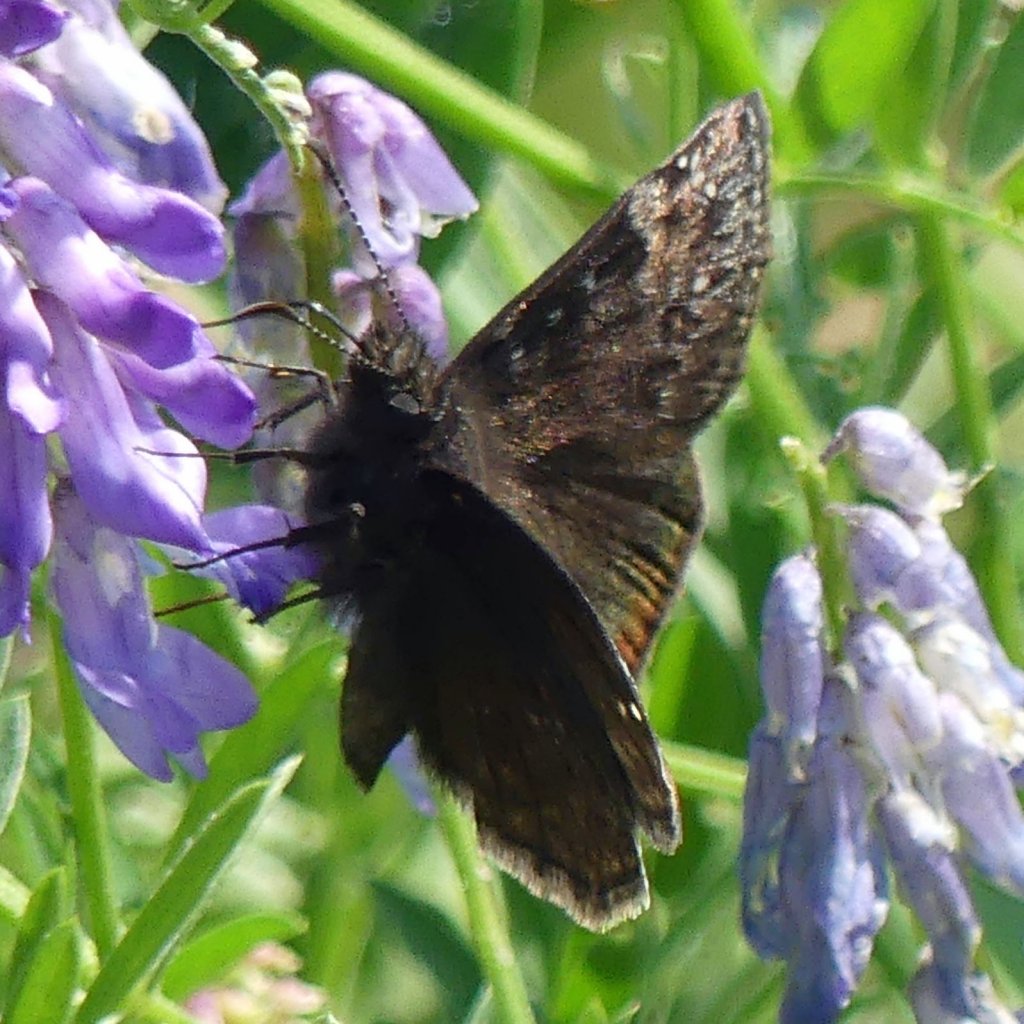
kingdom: Animalia
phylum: Arthropoda
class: Insecta
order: Lepidoptera
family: Hesperiidae
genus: Gesta
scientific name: Gesta
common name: Wild Indigo Duskywing
